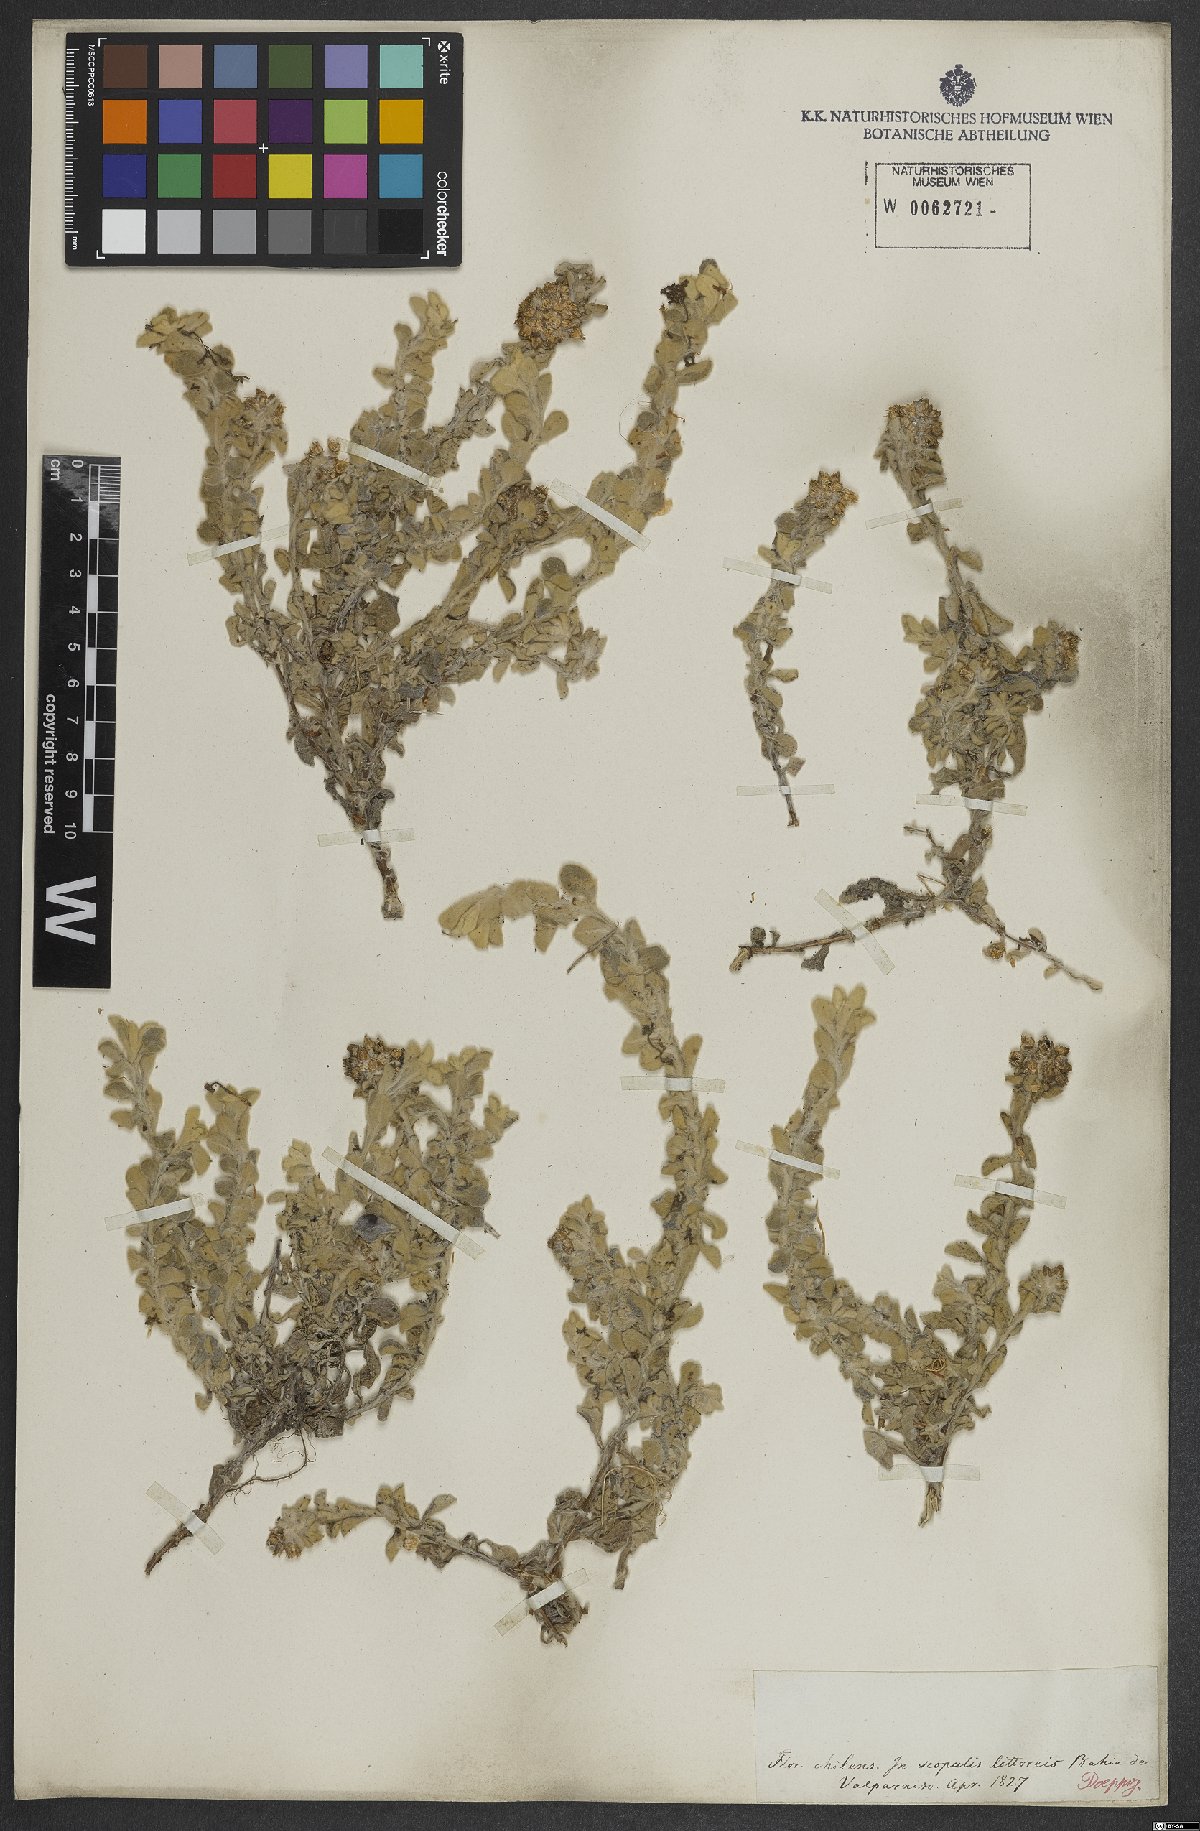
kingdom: Plantae
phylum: Tracheophyta
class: Magnoliopsida
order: Asterales
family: Asteraceae
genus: Achyrocline
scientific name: Achyrocline
